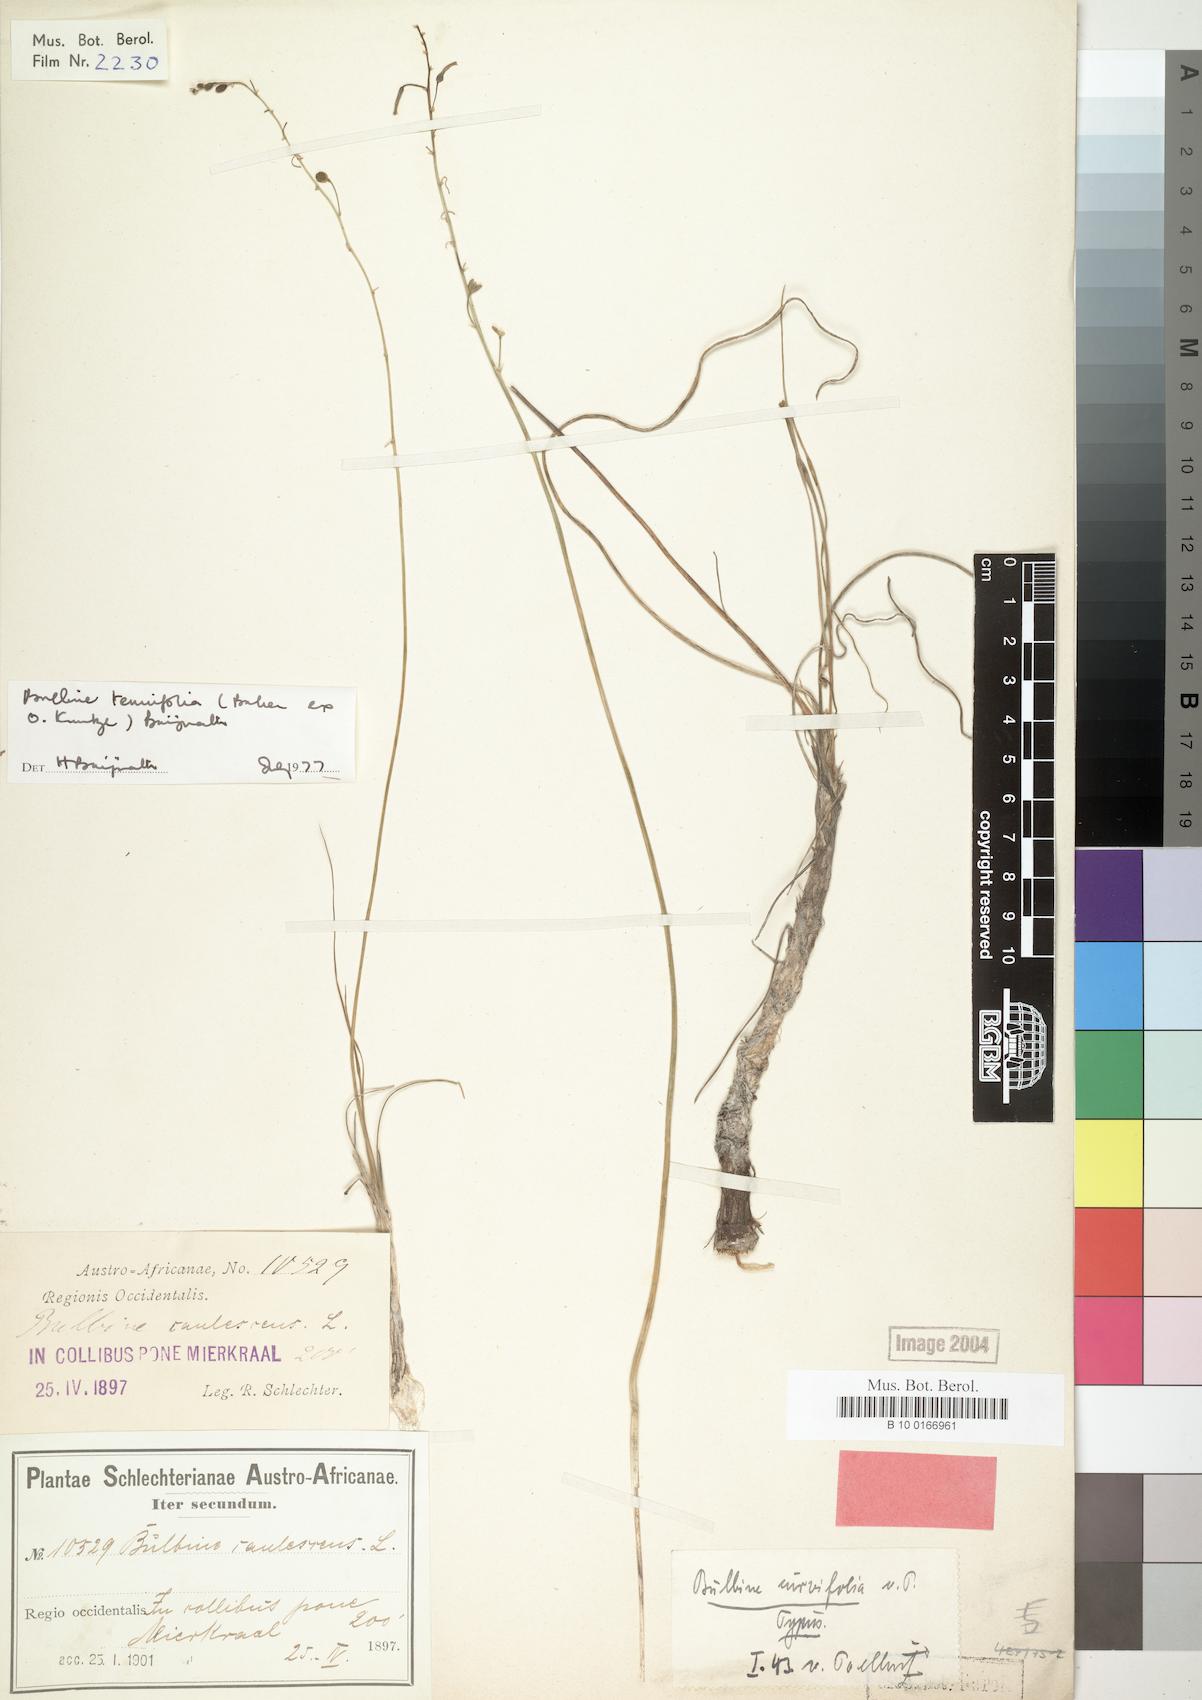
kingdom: Plantae
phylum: Tracheophyta
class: Liliopsida
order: Liliales
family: Liliaceae
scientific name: Liliaceae
